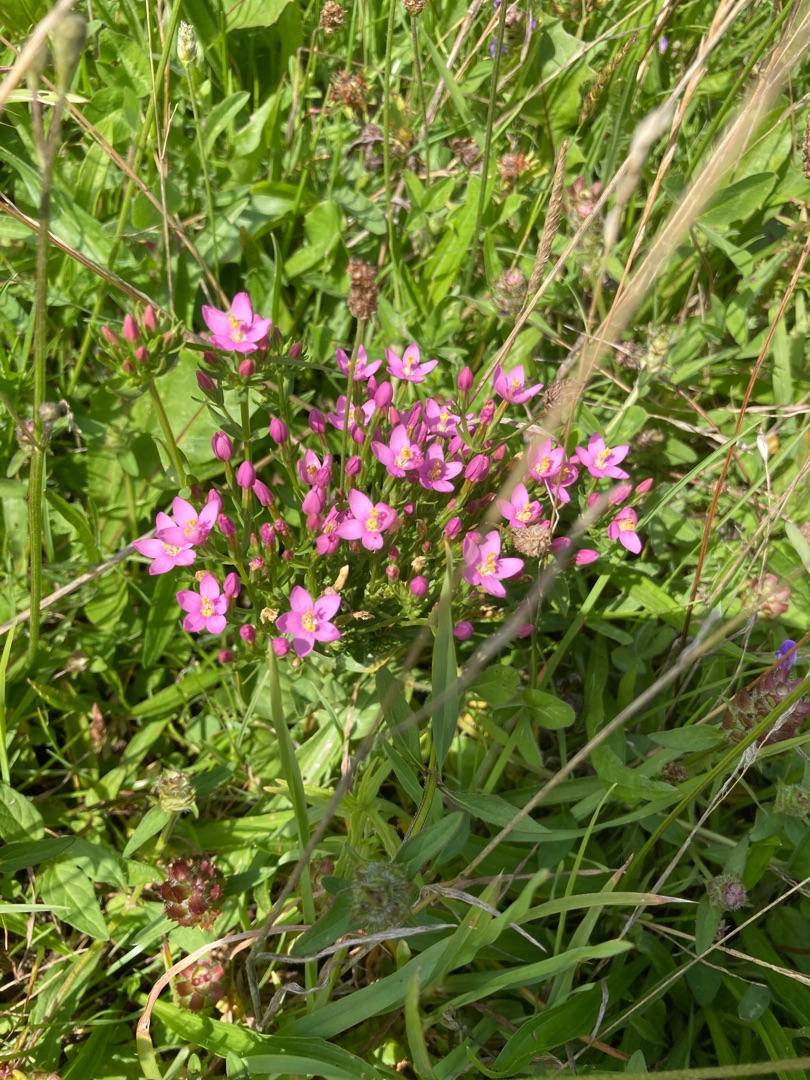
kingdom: Plantae
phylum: Tracheophyta
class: Magnoliopsida
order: Gentianales
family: Gentianaceae
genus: Centaurium
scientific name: Centaurium erythraea
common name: Mark-tusindgylden
